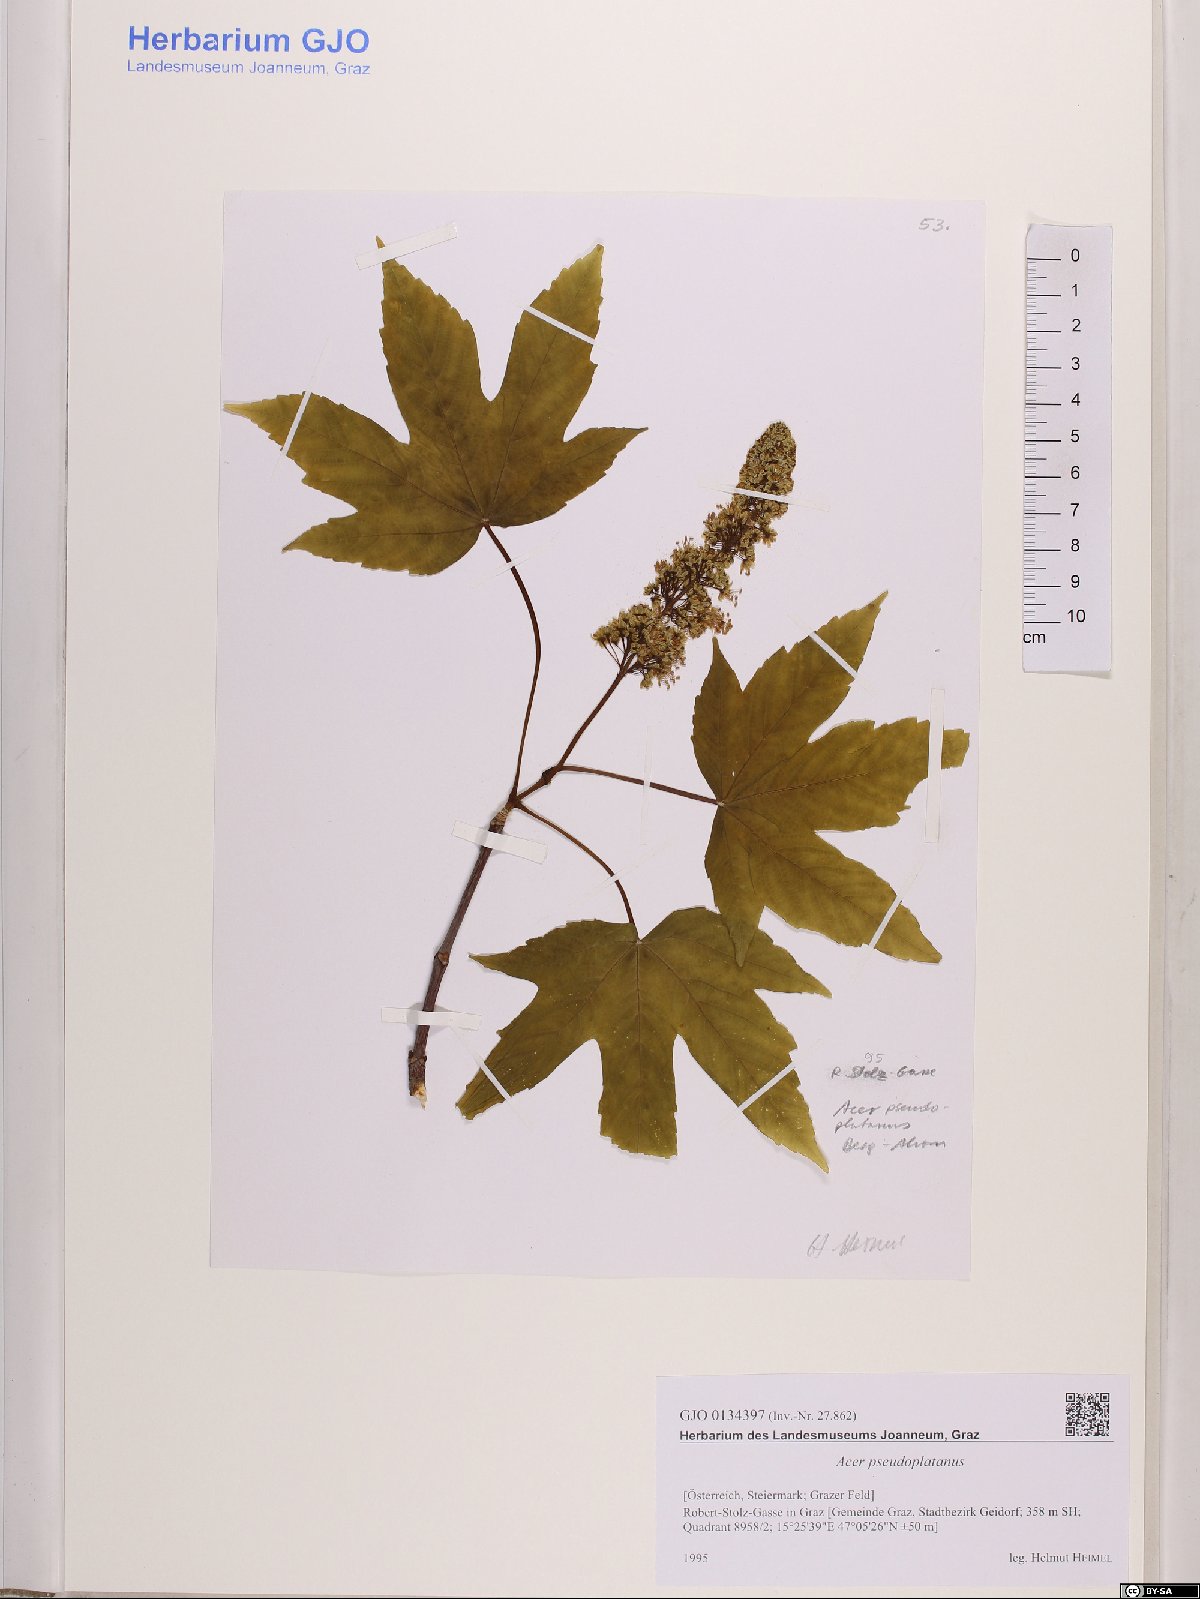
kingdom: Plantae
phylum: Tracheophyta
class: Magnoliopsida
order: Sapindales
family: Sapindaceae
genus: Acer
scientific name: Acer pseudoplatanus
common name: Sycamore
